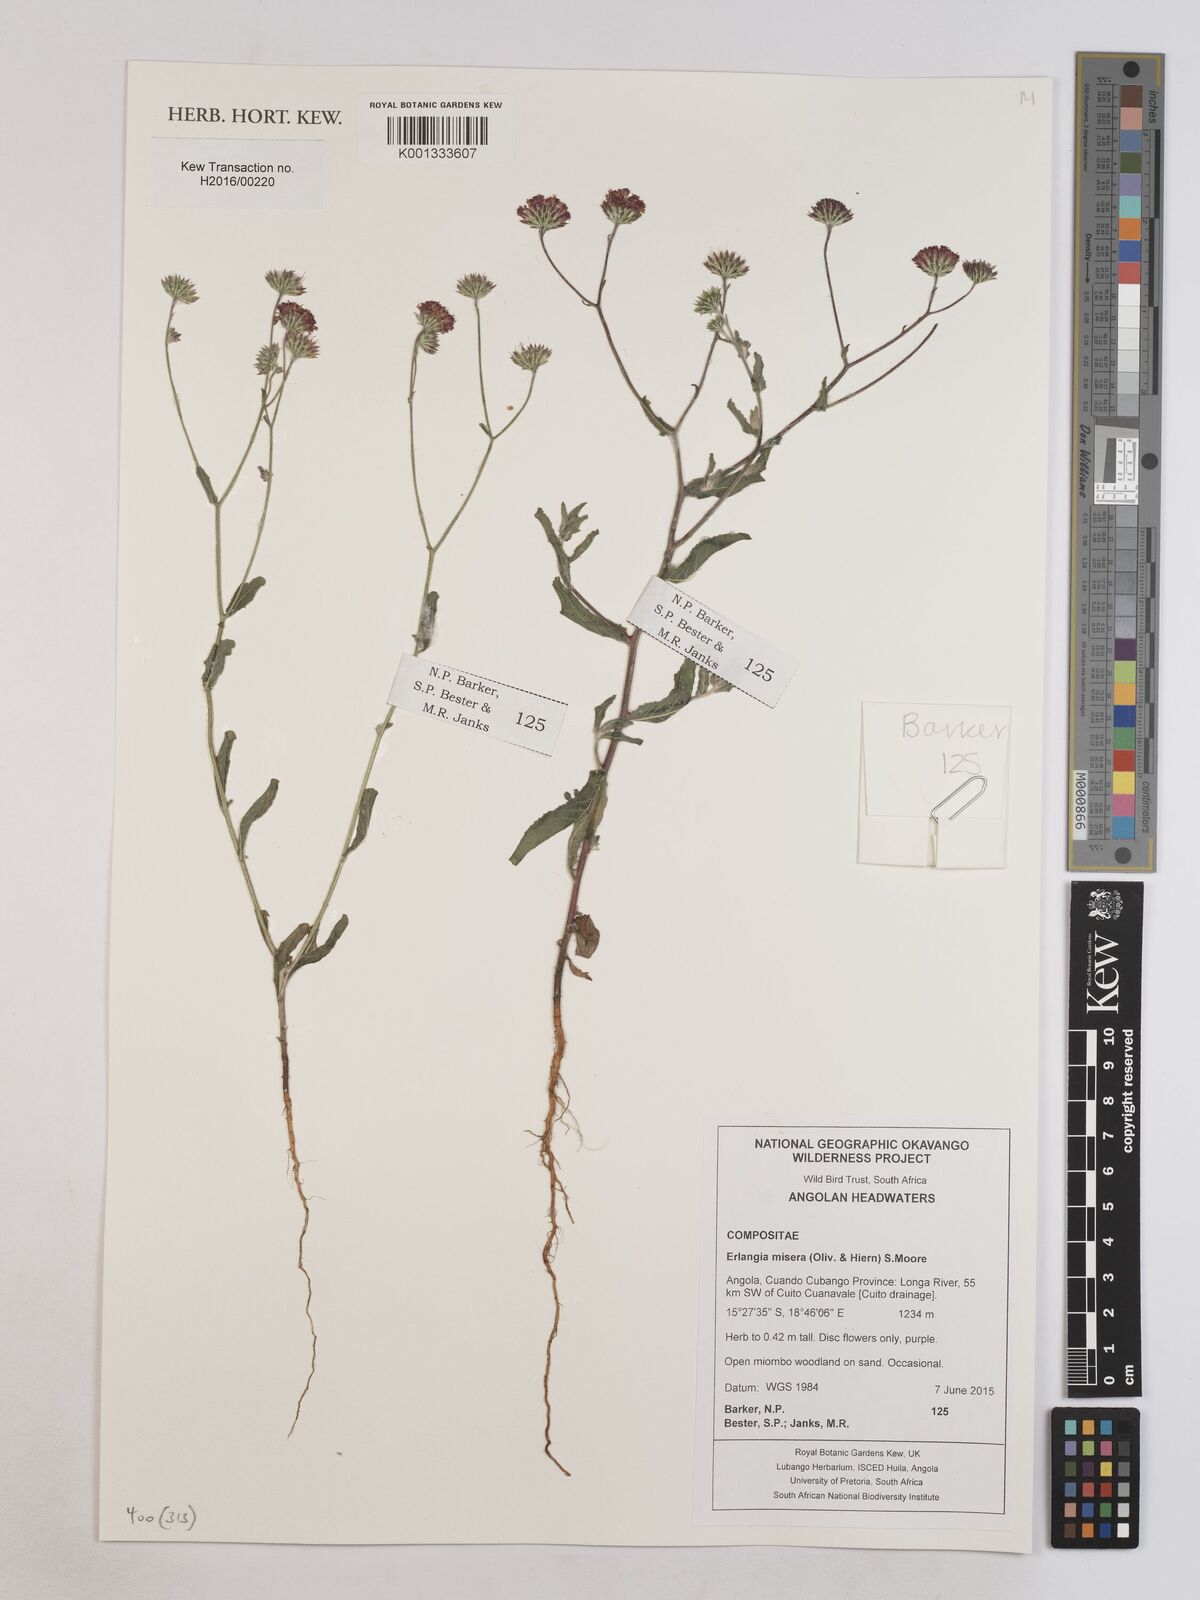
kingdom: Plantae
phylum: Tracheophyta
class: Magnoliopsida
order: Asterales
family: Asteraceae
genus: Erlangea
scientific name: Erlangea misera
